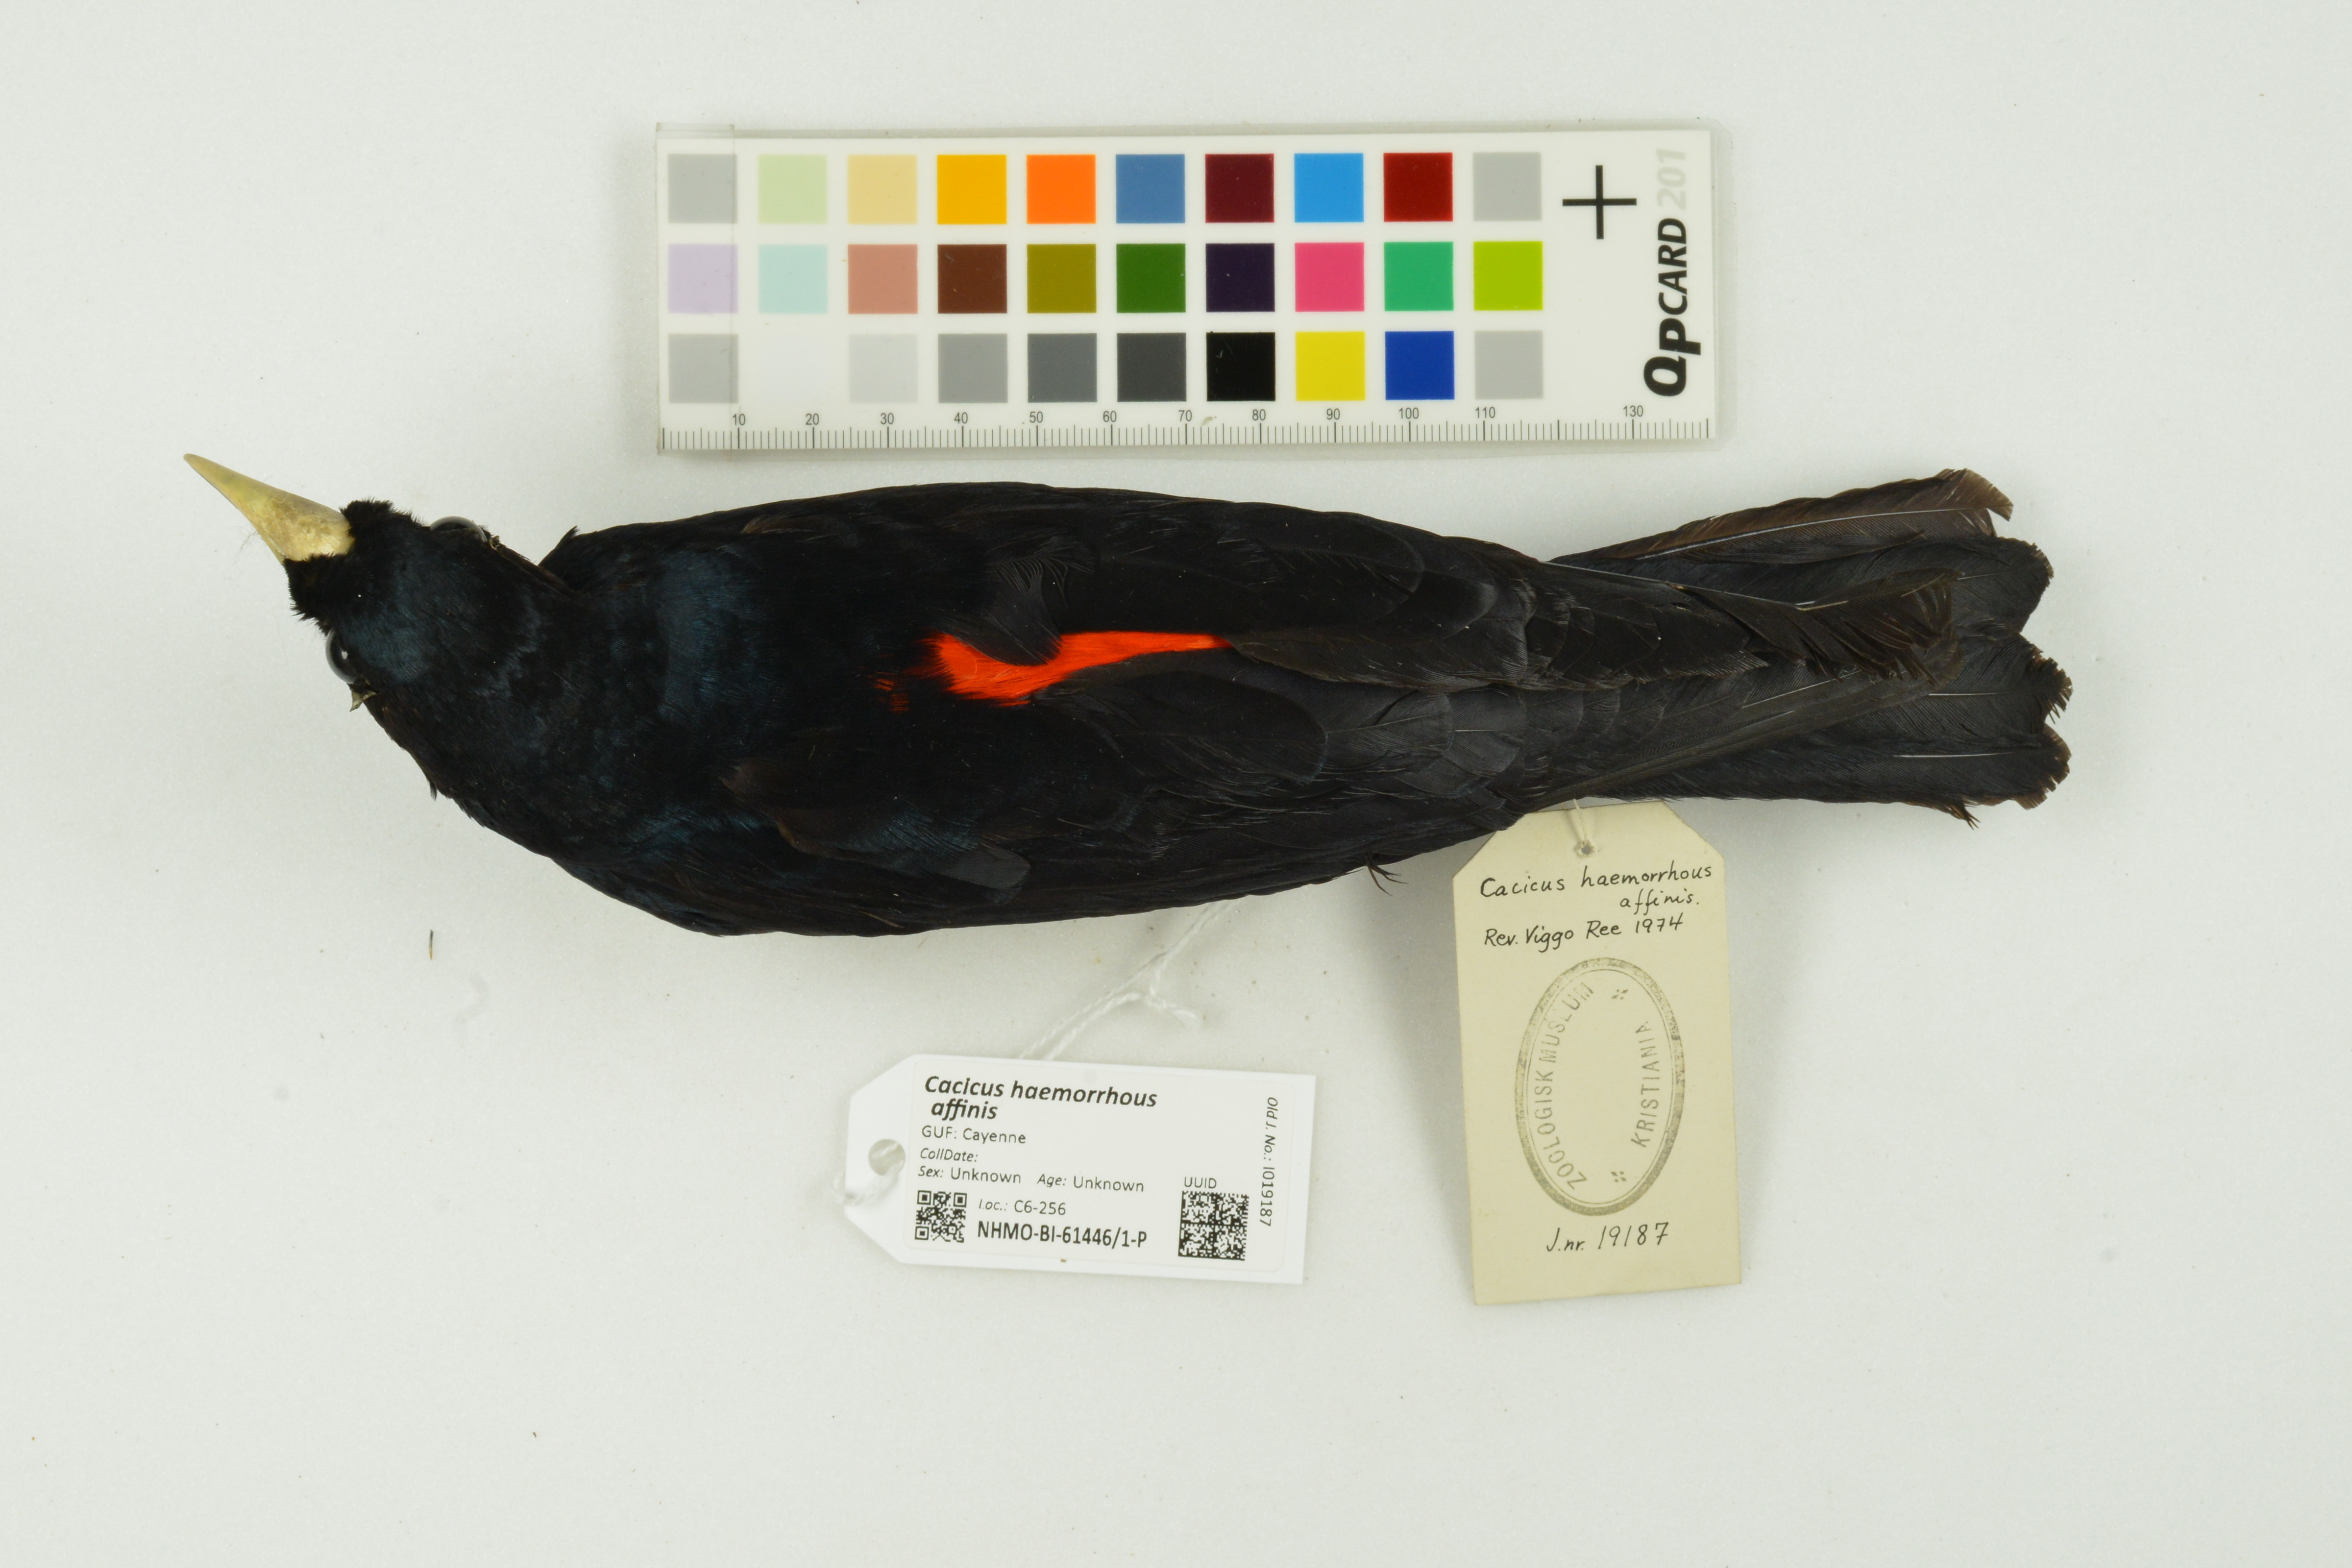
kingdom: Animalia
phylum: Chordata
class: Aves
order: Passeriformes
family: Icteridae
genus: Cacicus
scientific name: Cacicus haemorrhous
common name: Red-rumped cacique
